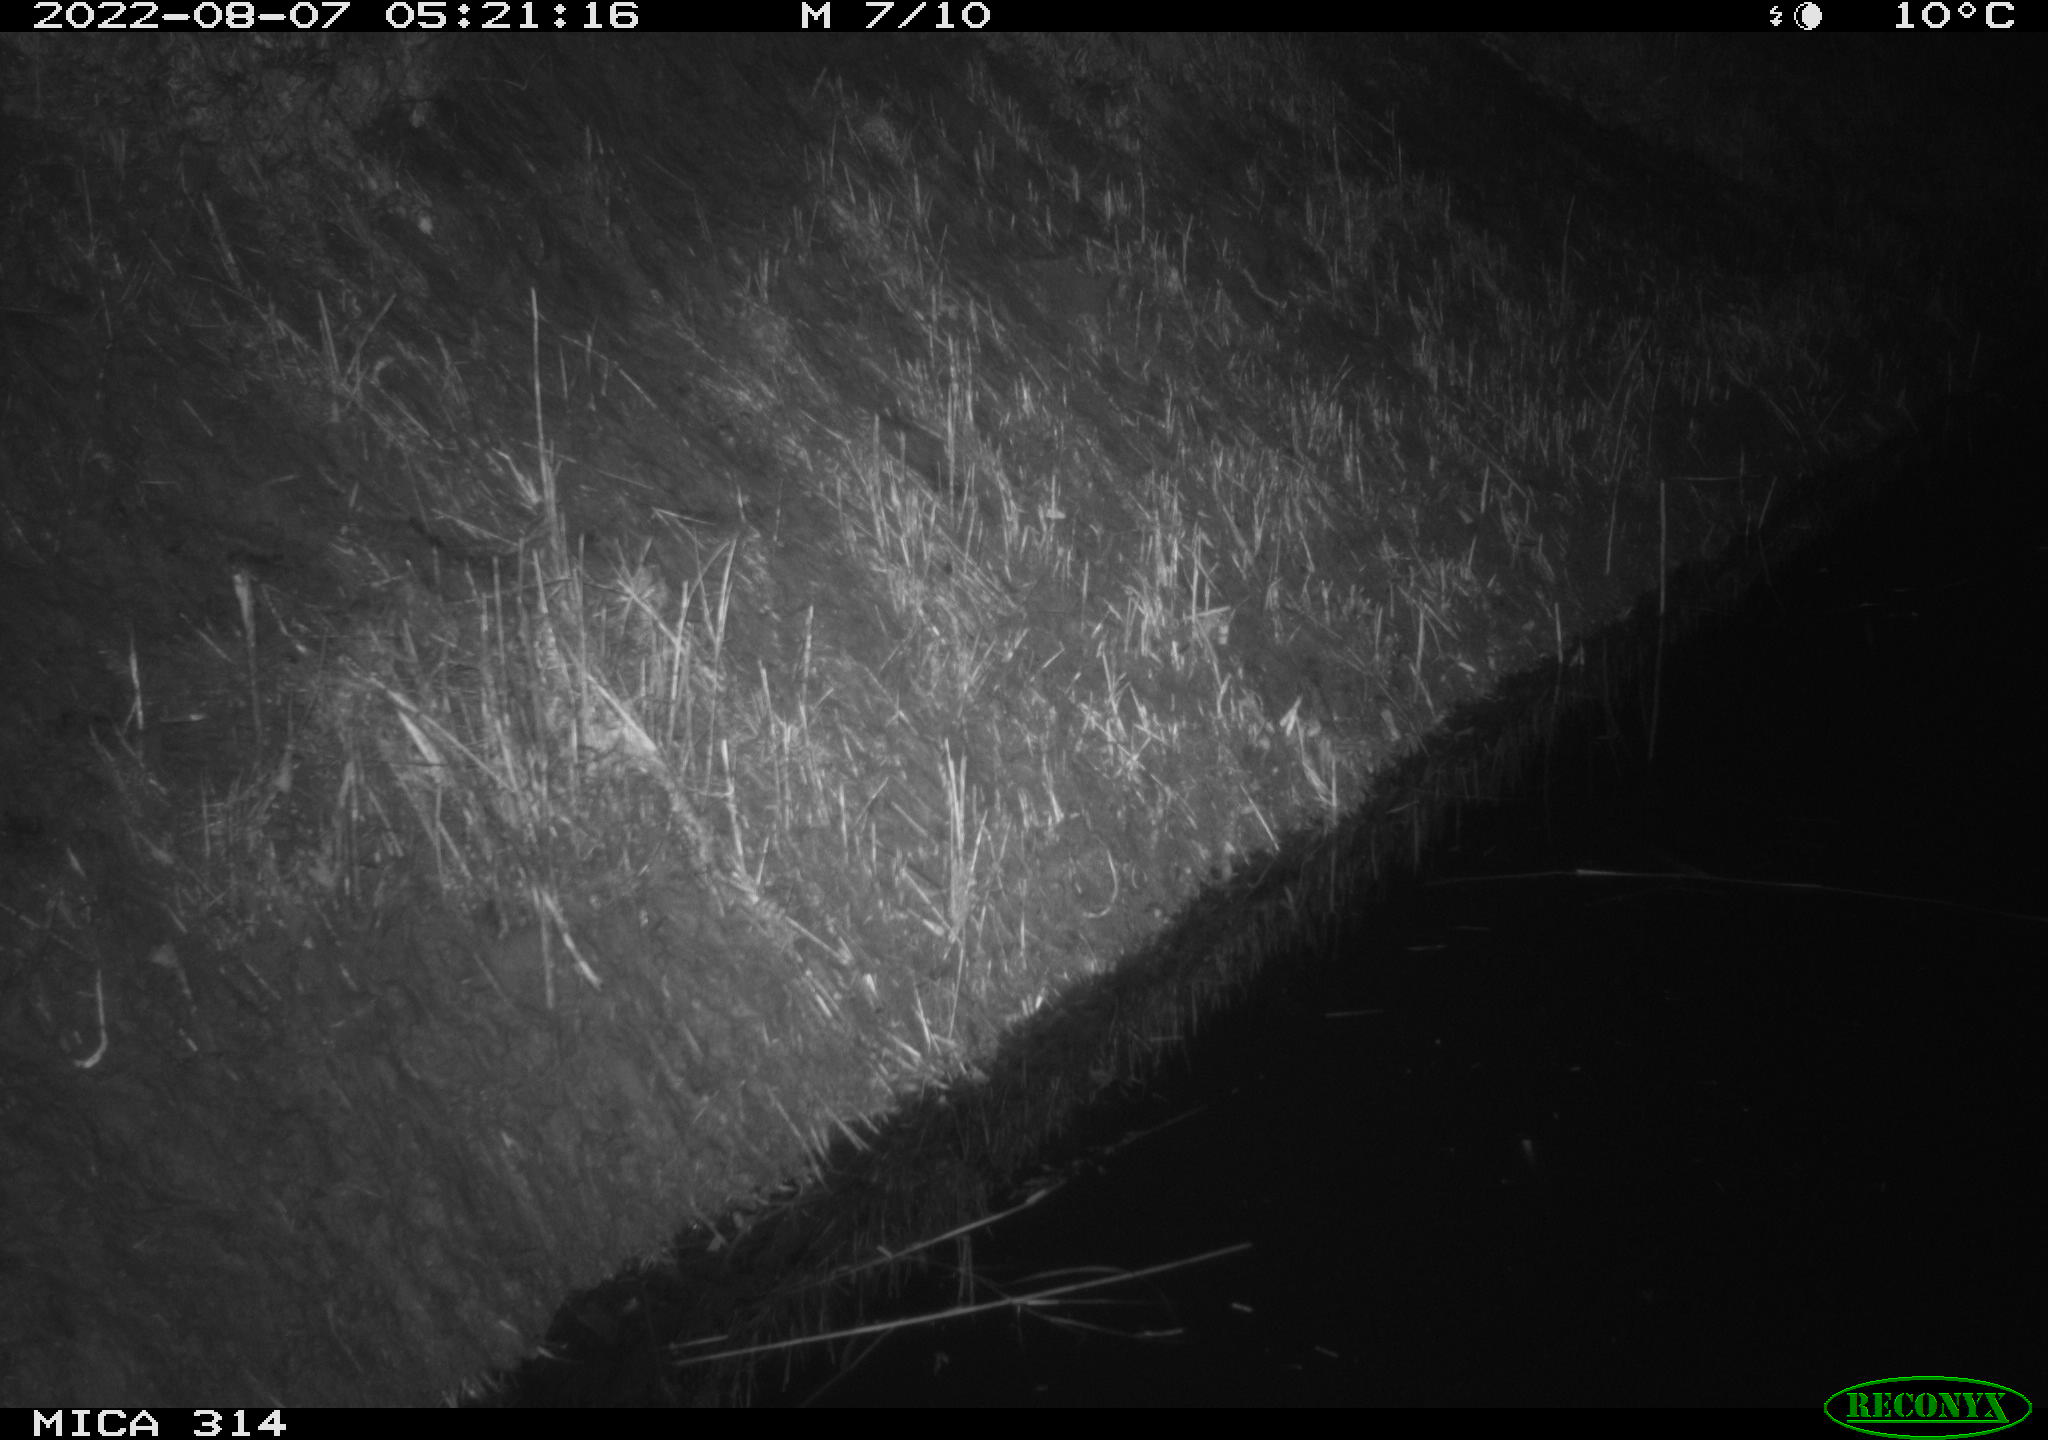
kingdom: Animalia
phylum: Chordata
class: Mammalia
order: Rodentia
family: Muridae
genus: Rattus
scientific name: Rattus norvegicus
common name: Brown rat
